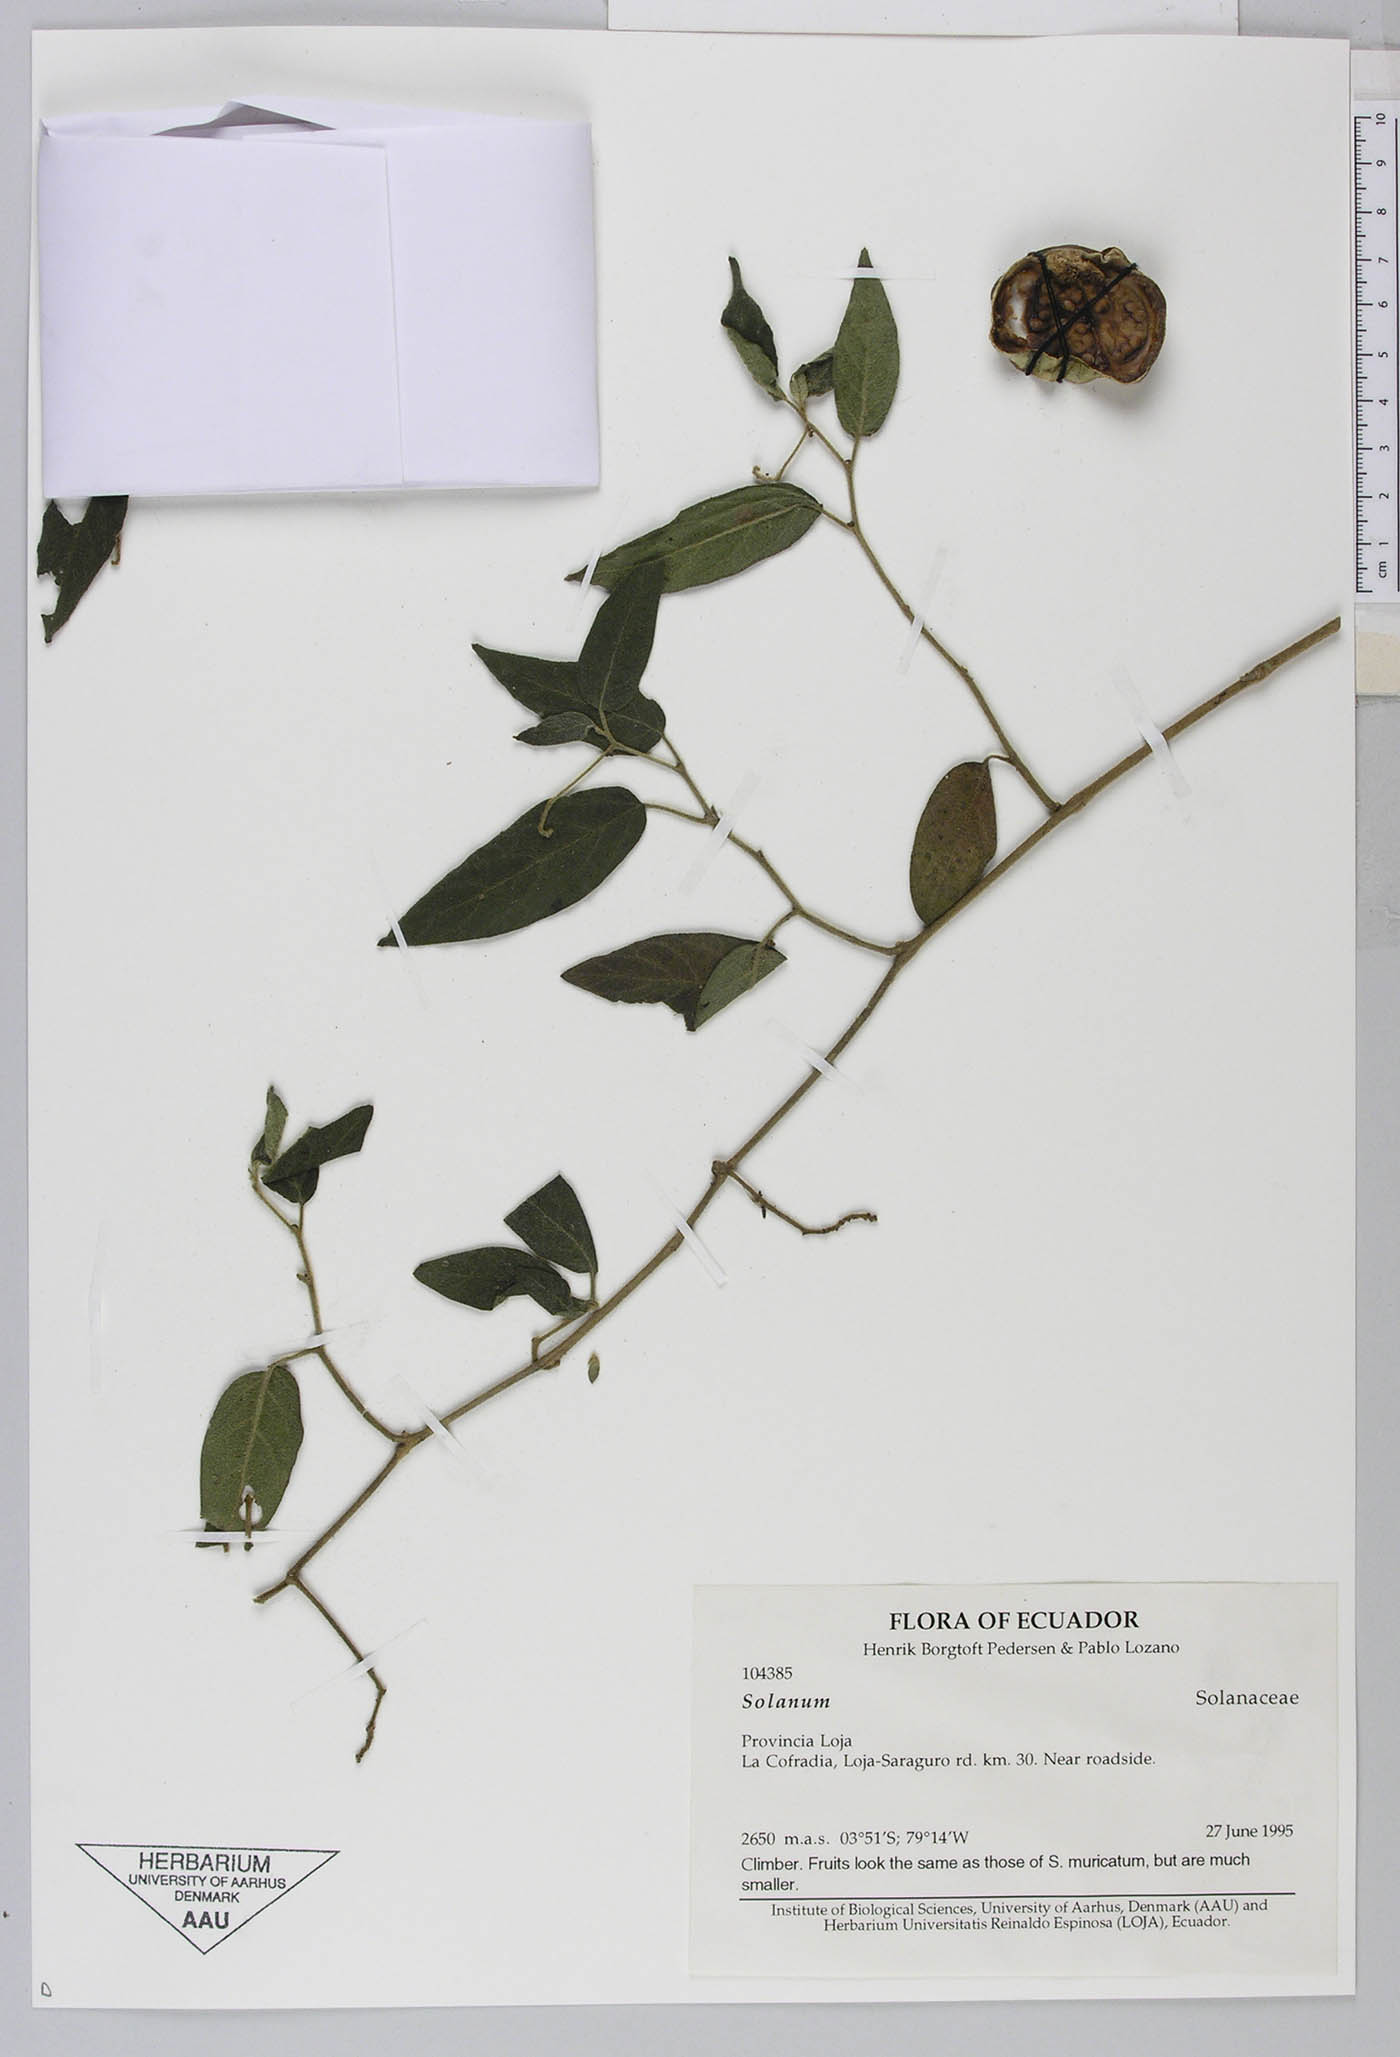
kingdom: Plantae
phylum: Tracheophyta
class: Magnoliopsida
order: Solanales
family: Solanaceae
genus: Solanum
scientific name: Solanum muricatum
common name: Peruvian pepino
